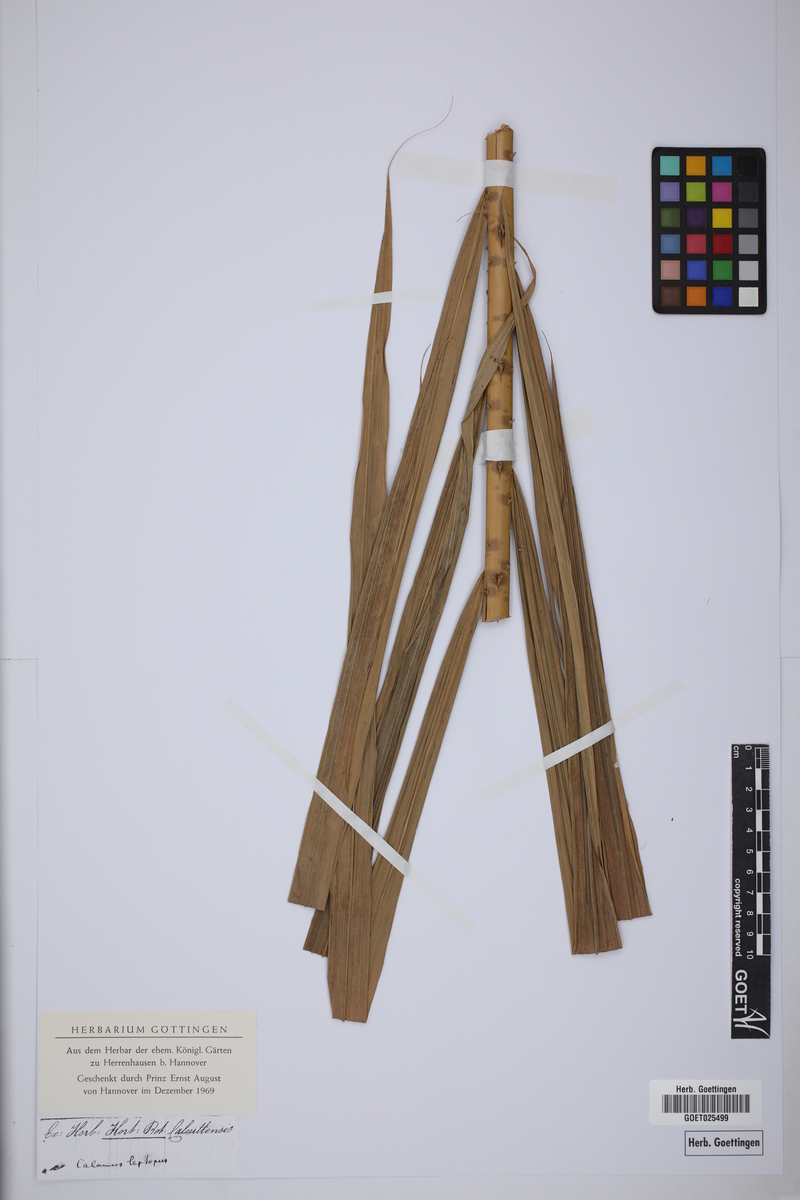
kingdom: Plantae
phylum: Tracheophyta
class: Liliopsida
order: Arecales
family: Arecaceae
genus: Calamus
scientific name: Calamus leptopus
